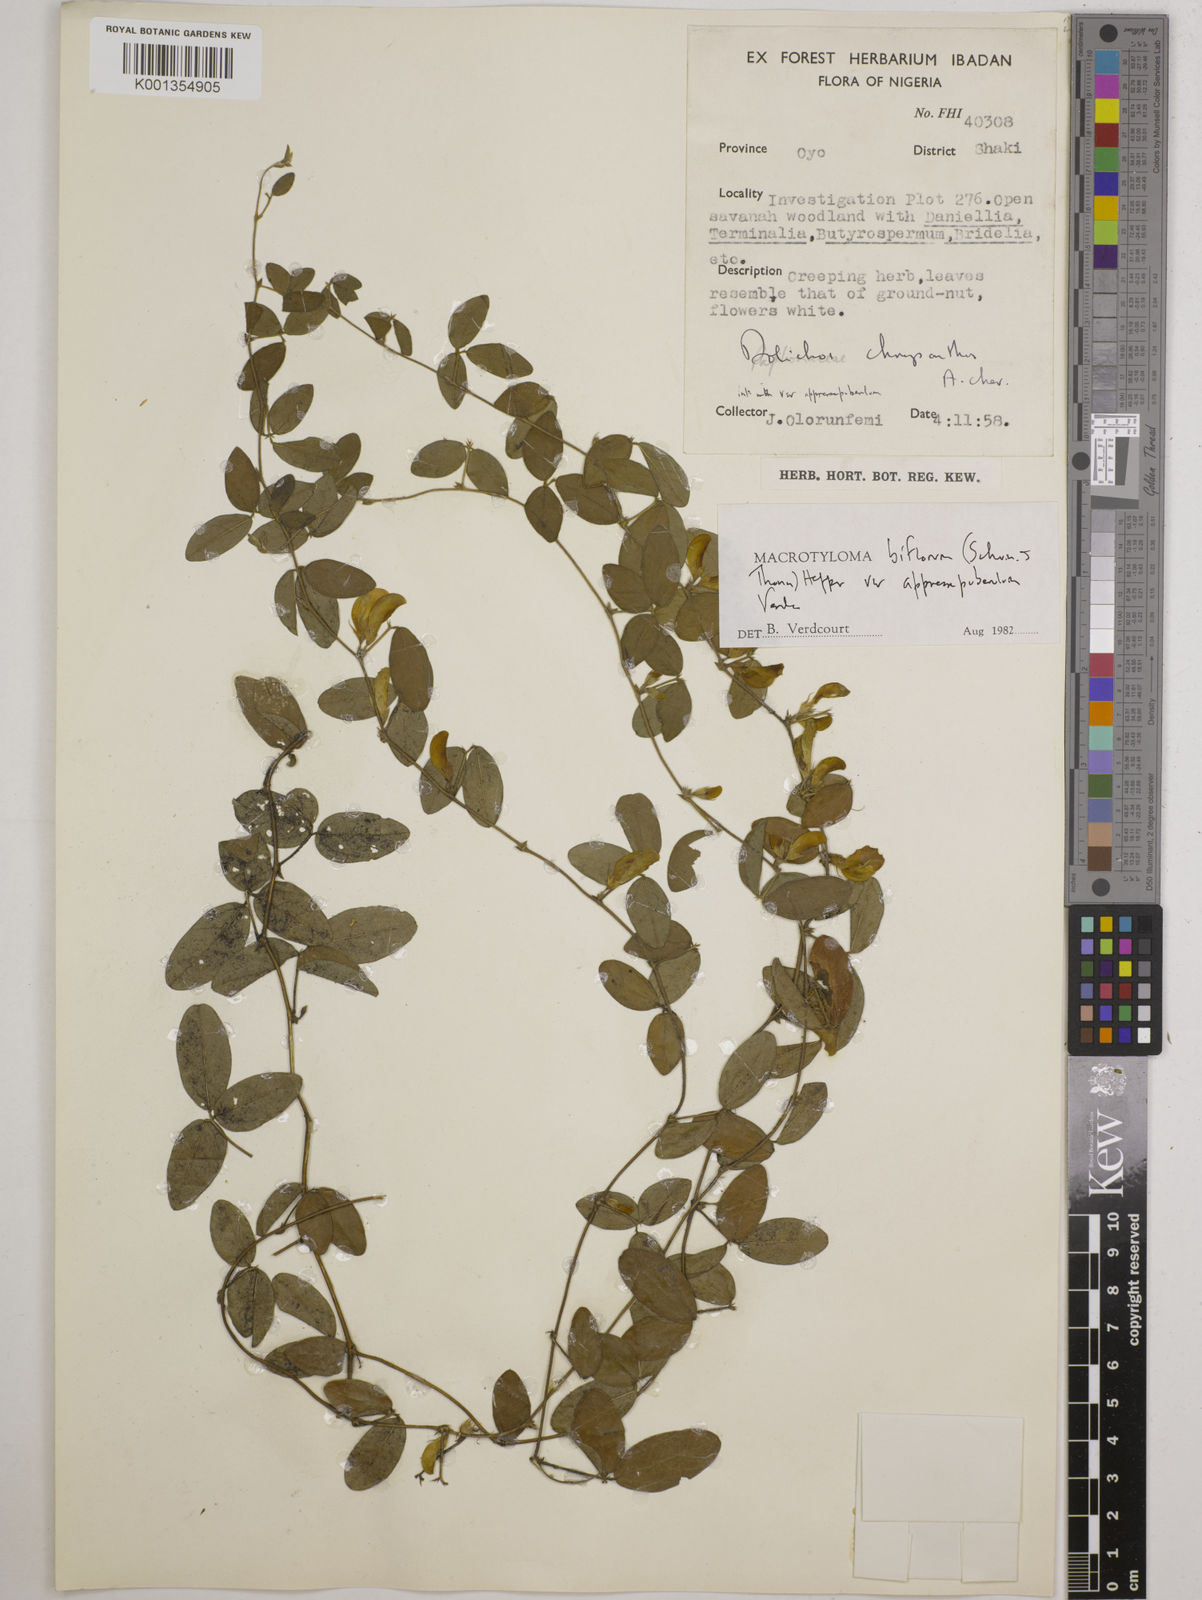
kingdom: Plantae
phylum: Tracheophyta
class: Magnoliopsida
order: Fabales
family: Fabaceae
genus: Macrotyloma
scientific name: Macrotyloma biflorum
